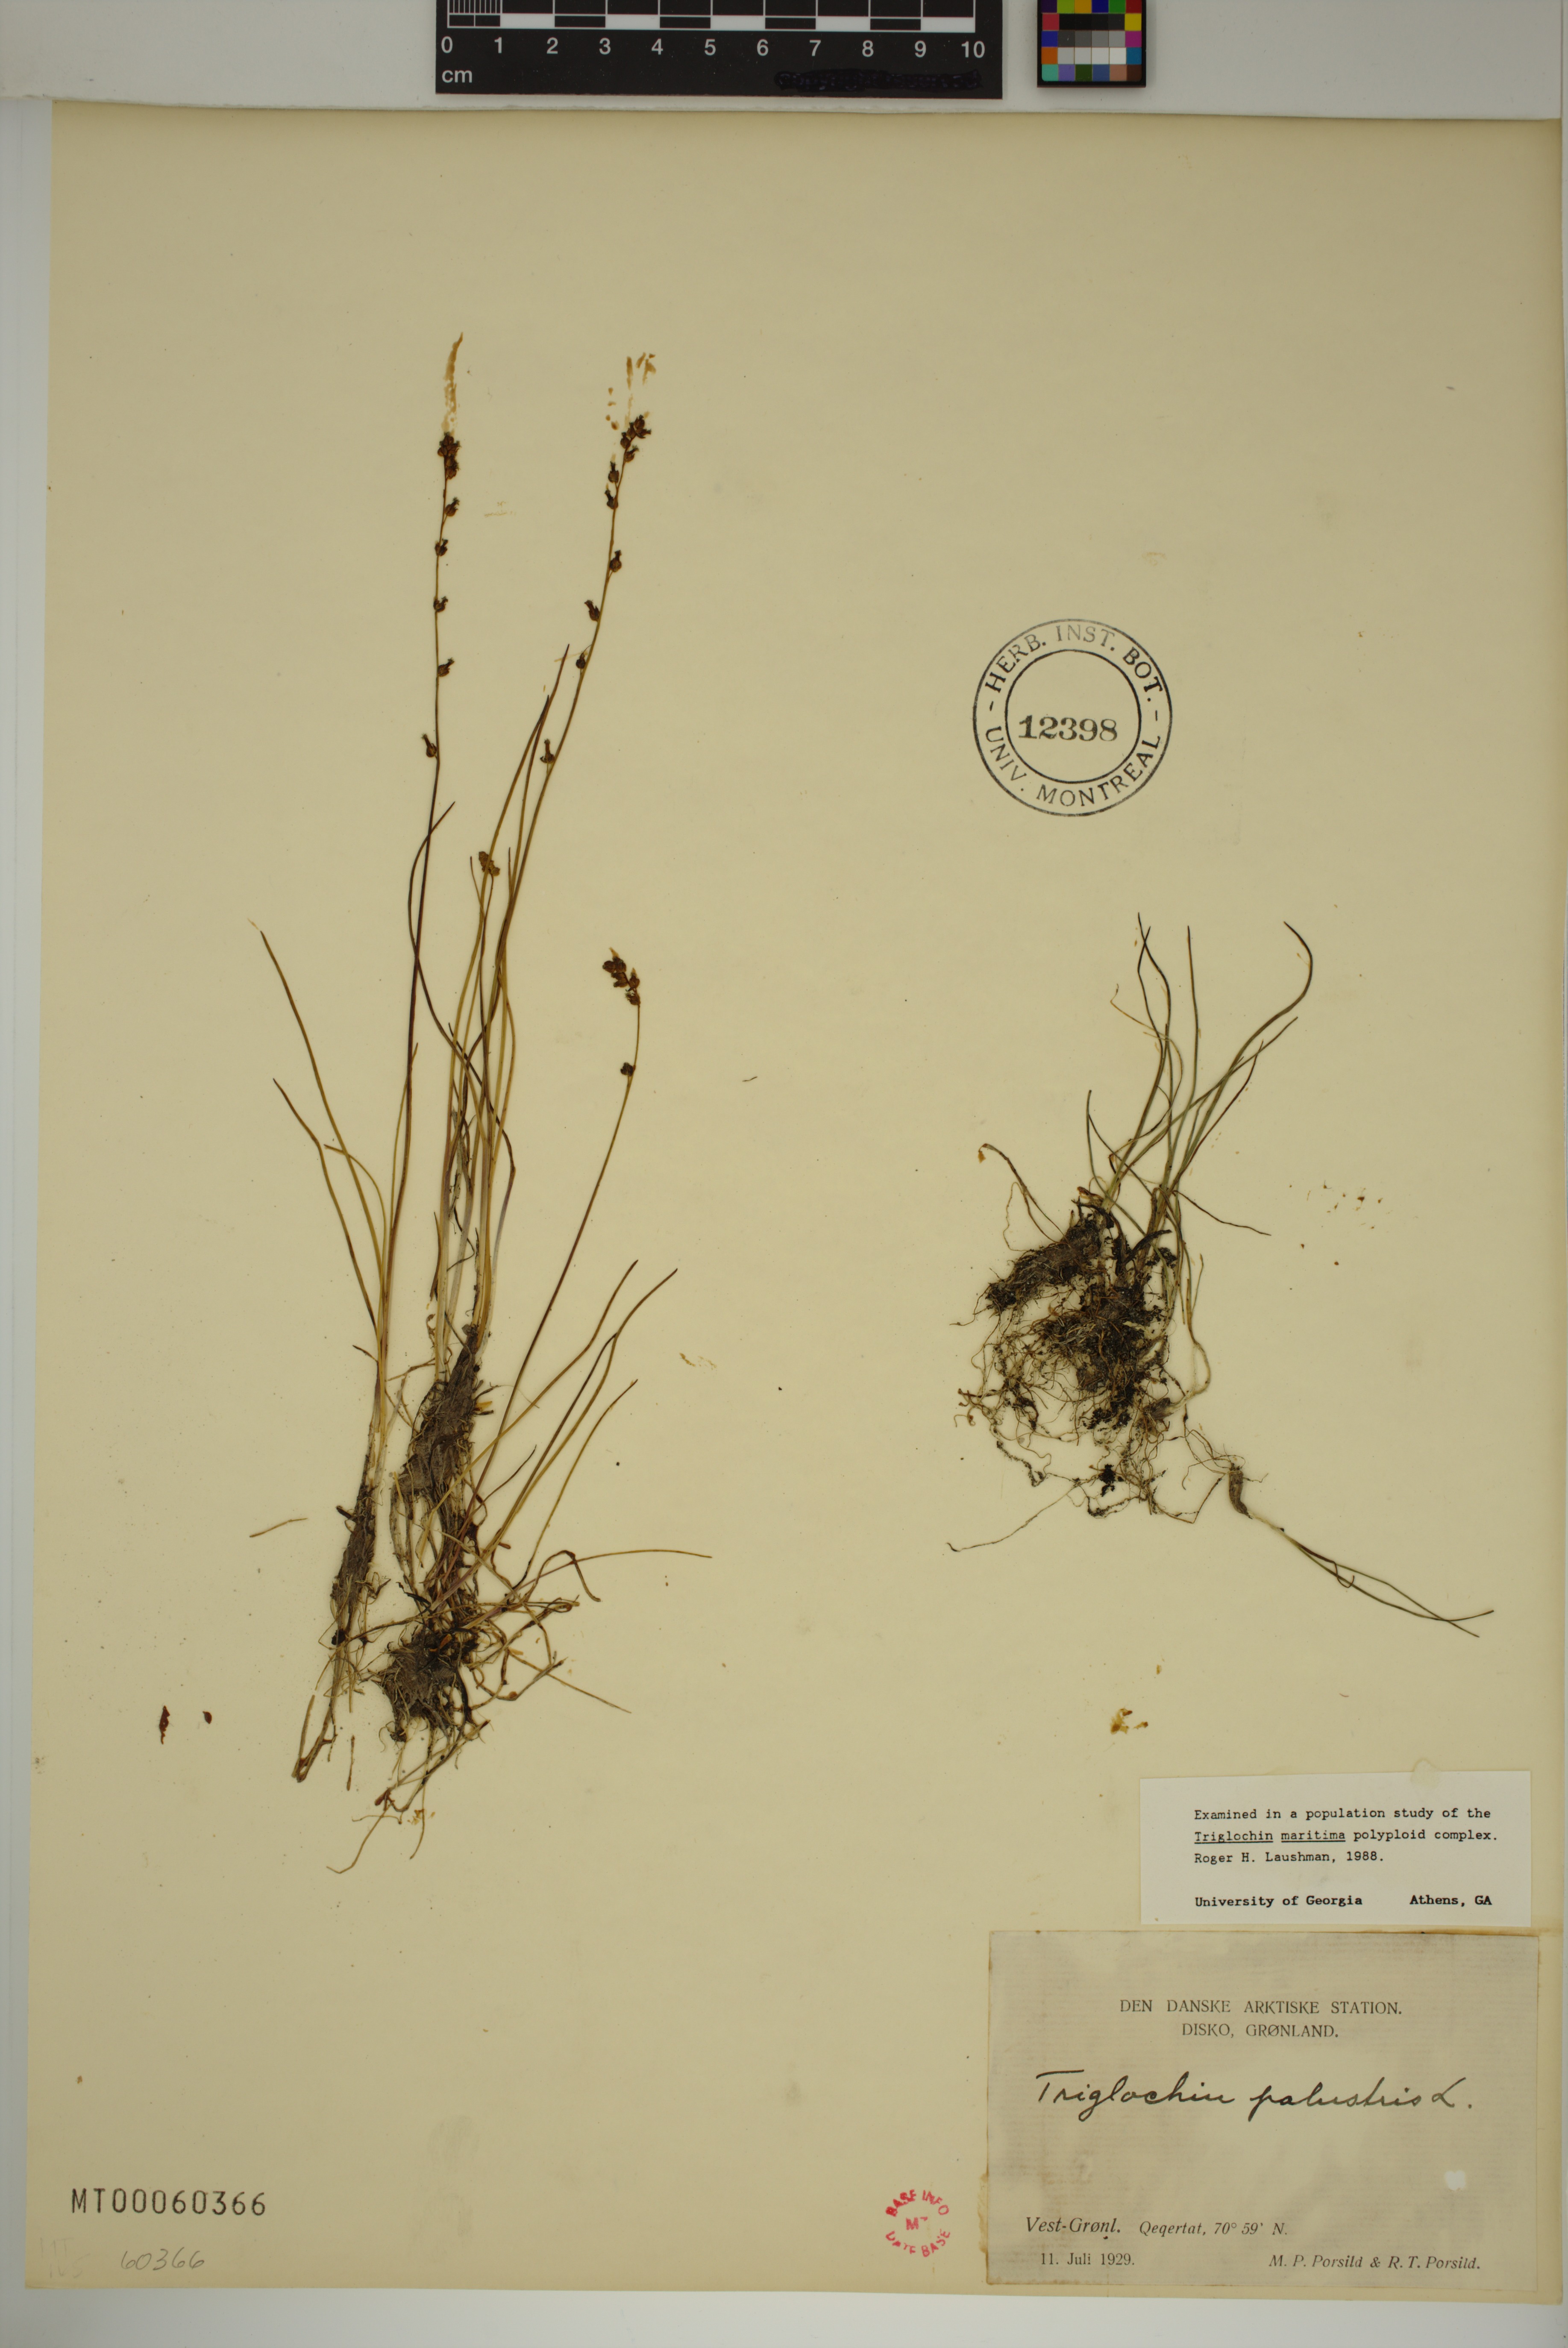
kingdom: Plantae
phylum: Tracheophyta
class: Liliopsida
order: Alismatales
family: Juncaginaceae
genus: Triglochin
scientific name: Triglochin palustris
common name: Marsh arrowgrass
